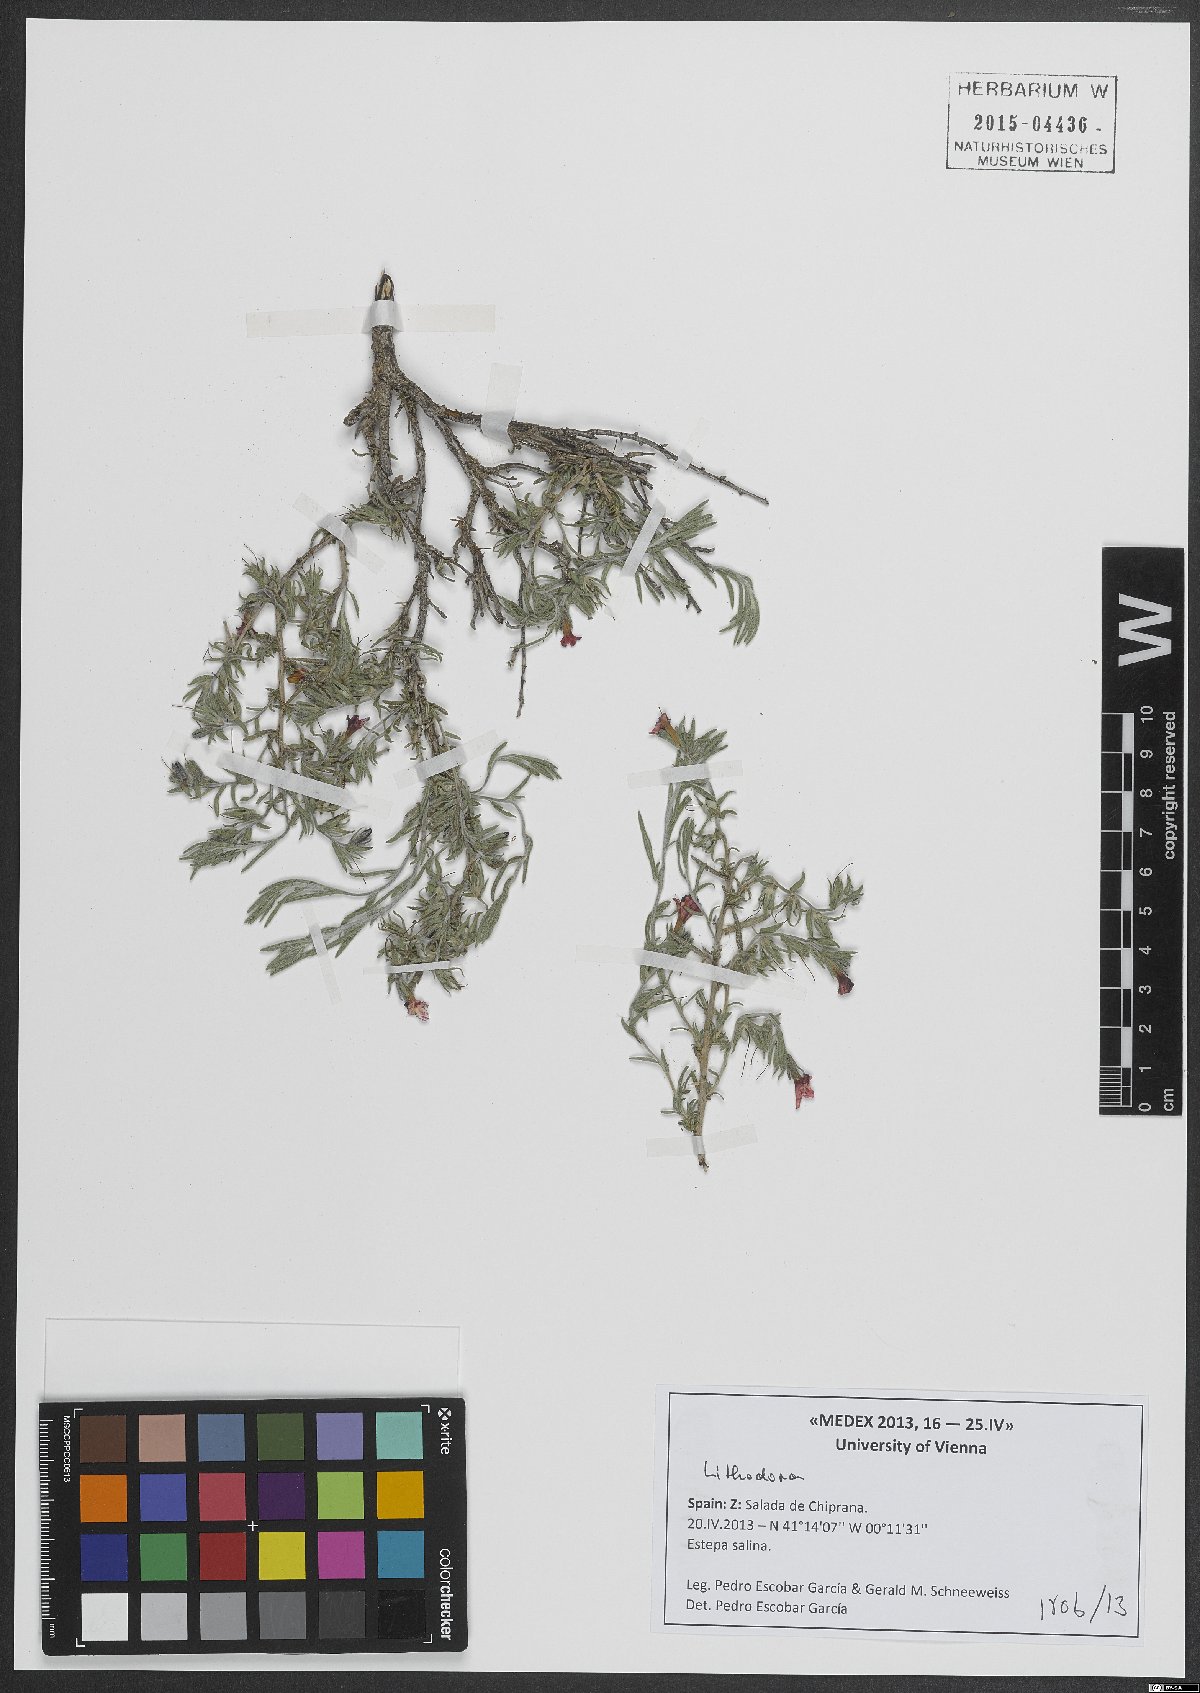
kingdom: Plantae
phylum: Tracheophyta
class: Magnoliopsida
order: Boraginales
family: Boraginaceae
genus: Lithodora
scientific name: Lithodora
